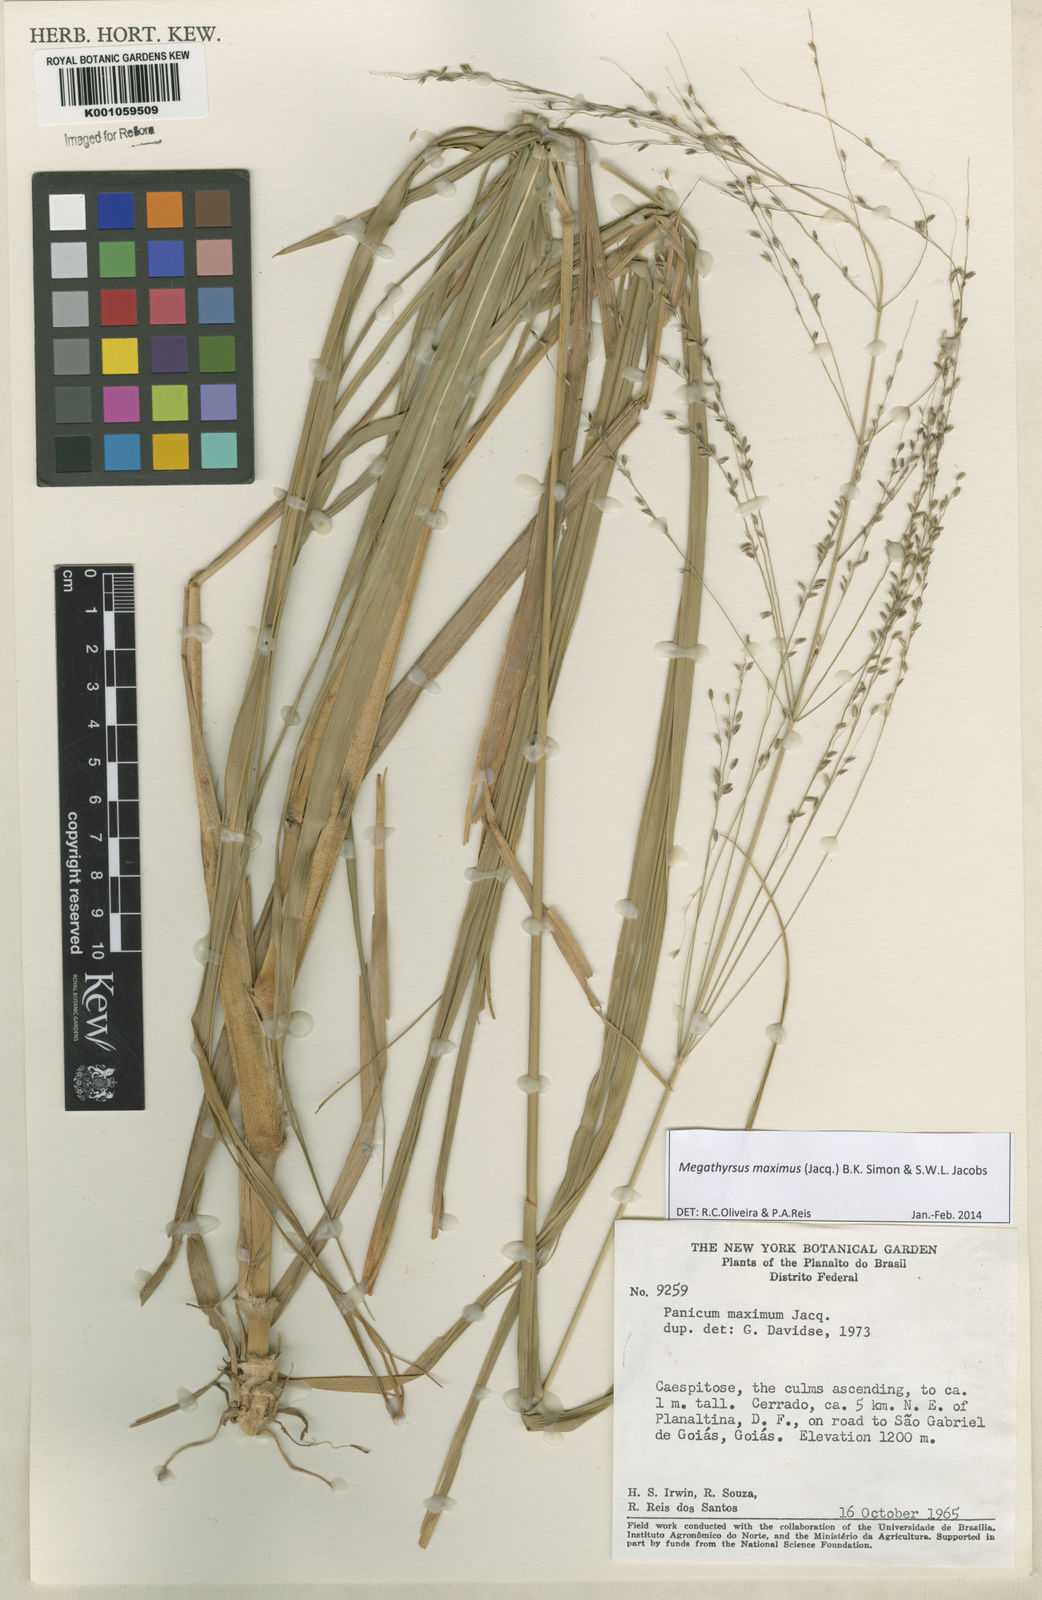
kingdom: Plantae
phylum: Tracheophyta
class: Liliopsida
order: Poales
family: Poaceae
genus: Megathyrsus
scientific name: Megathyrsus maximus
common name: Guineagrass
